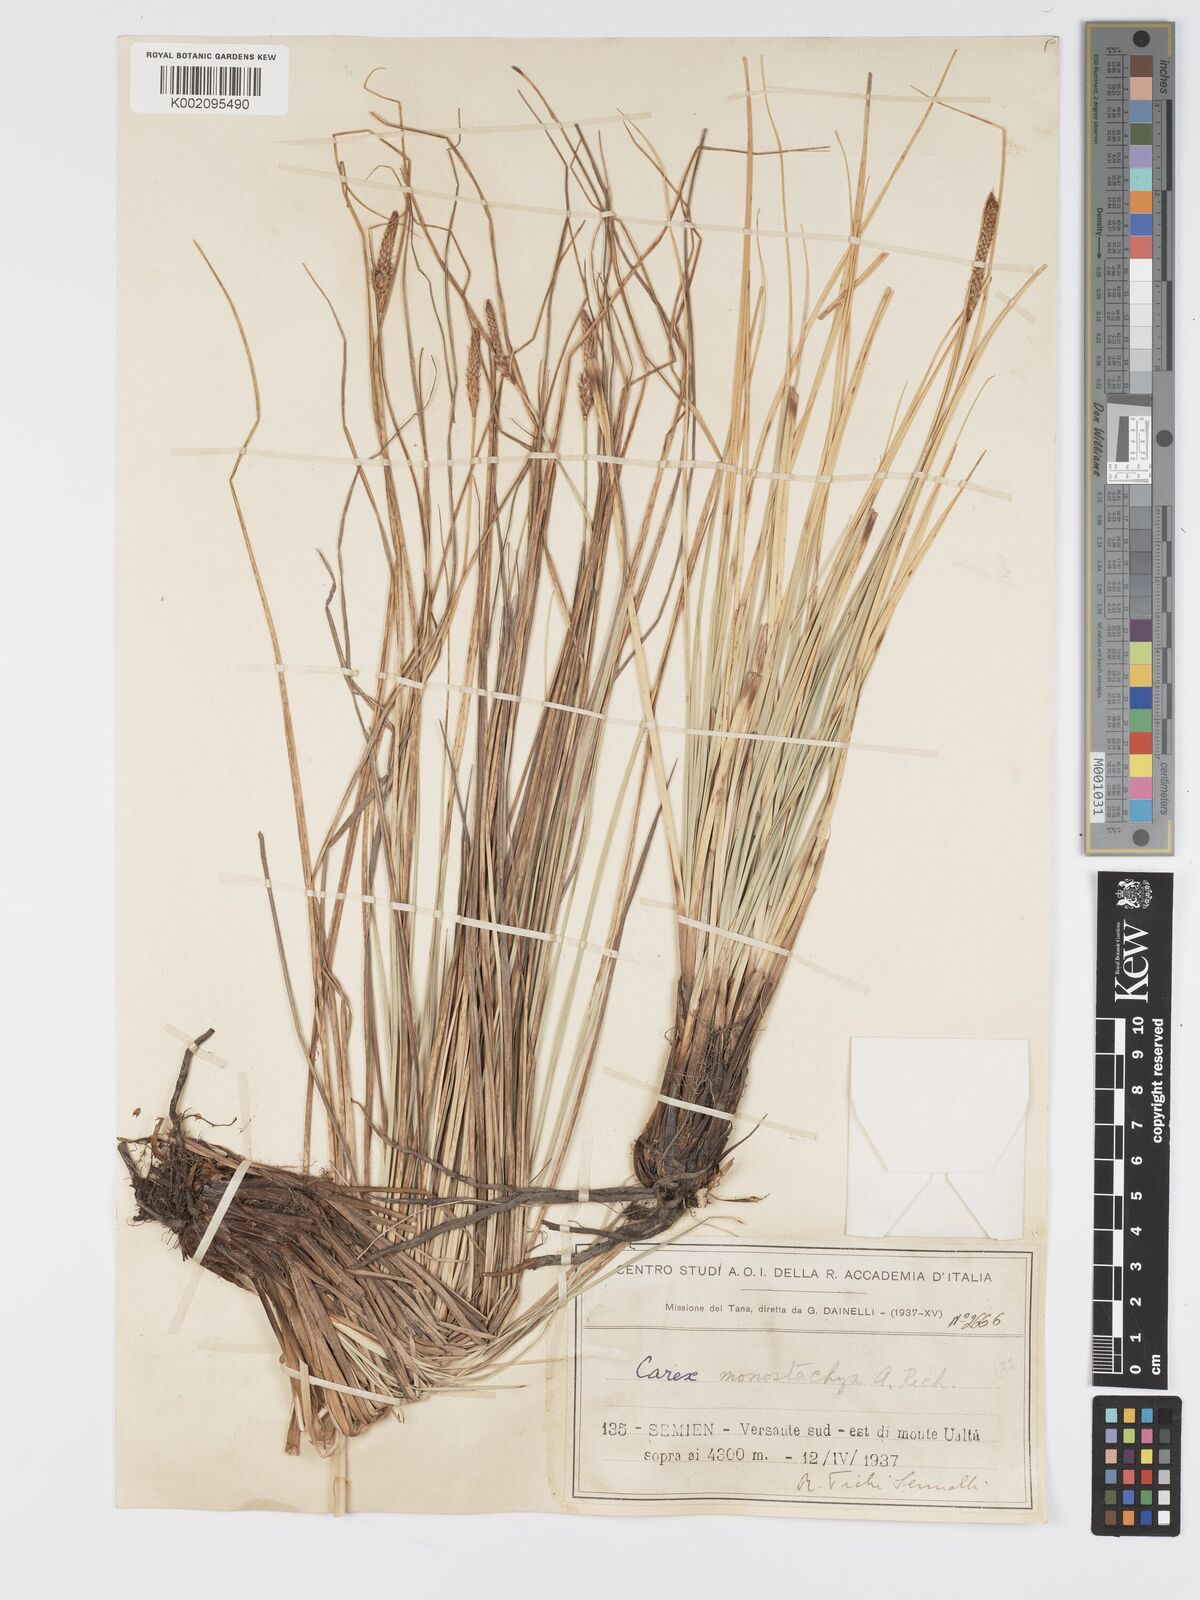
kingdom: Plantae
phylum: Tracheophyta
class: Liliopsida
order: Poales
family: Cyperaceae
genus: Carex
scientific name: Carex monostachya
